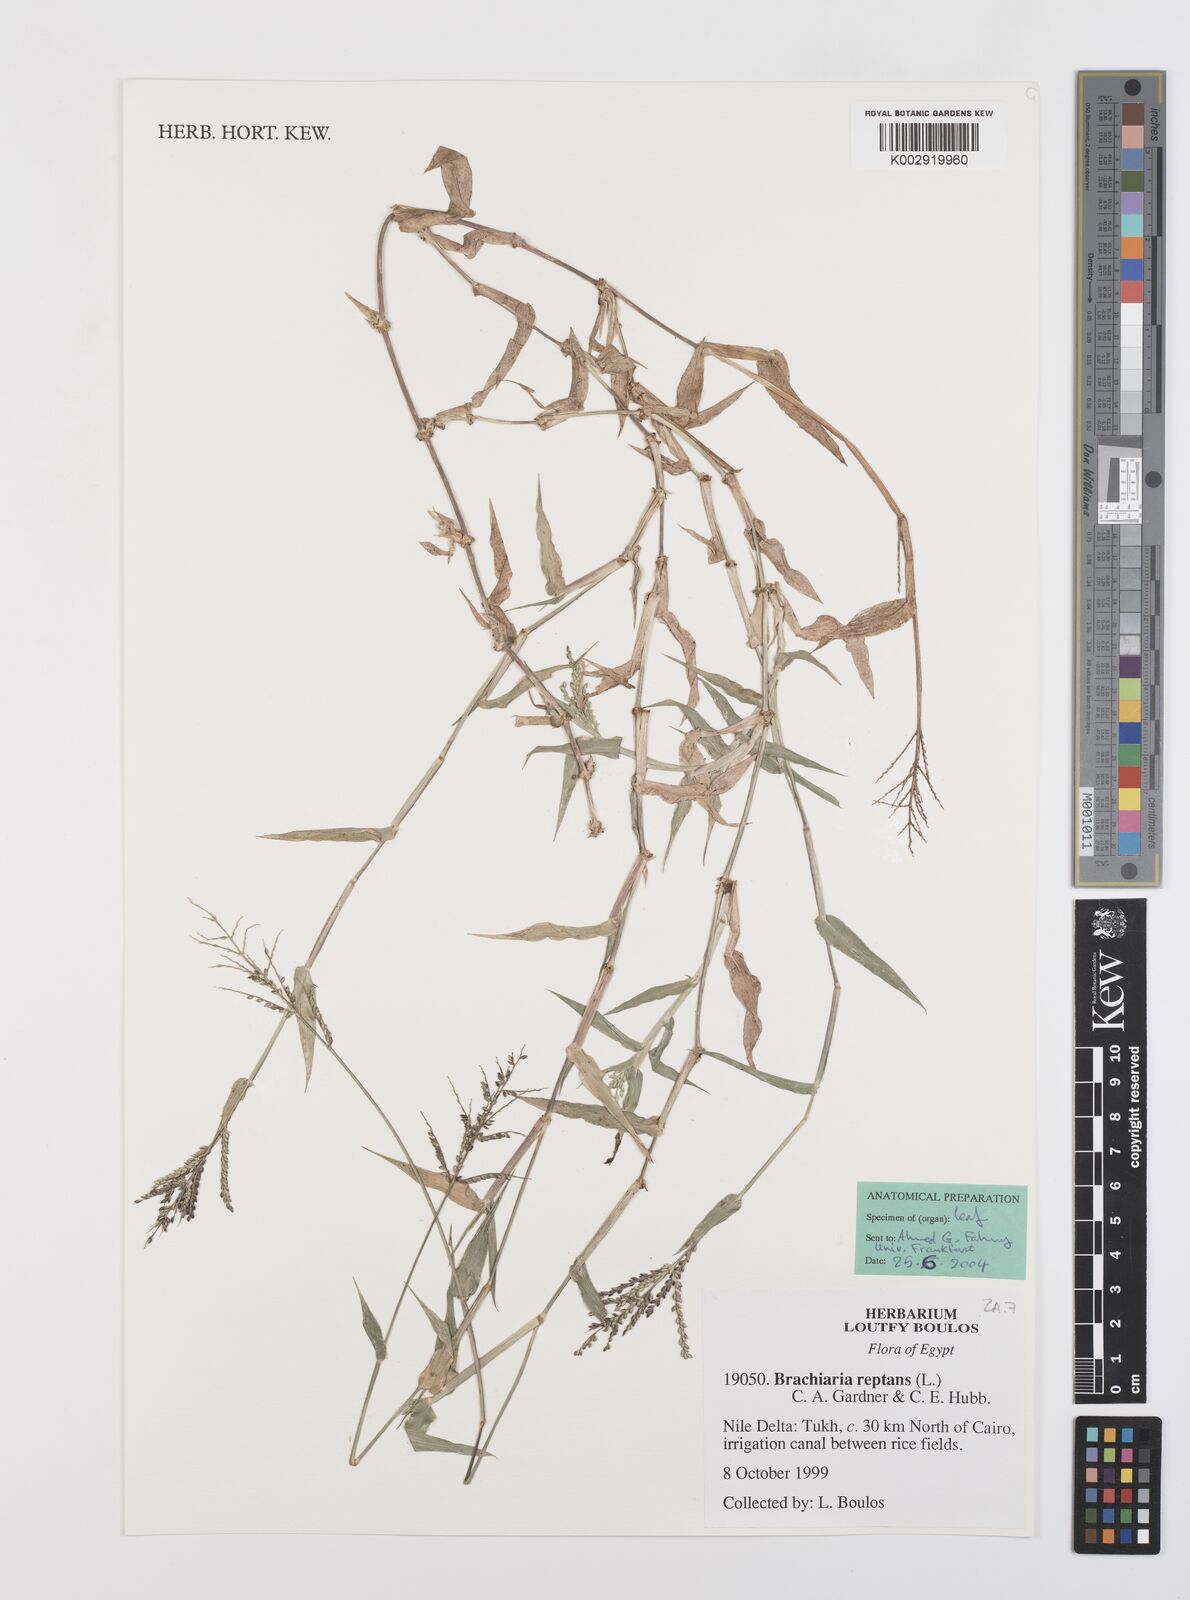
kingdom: Plantae
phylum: Tracheophyta
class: Liliopsida
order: Poales
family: Poaceae
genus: Urochloa
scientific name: Urochloa reptans
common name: Sprawling signalgrass
